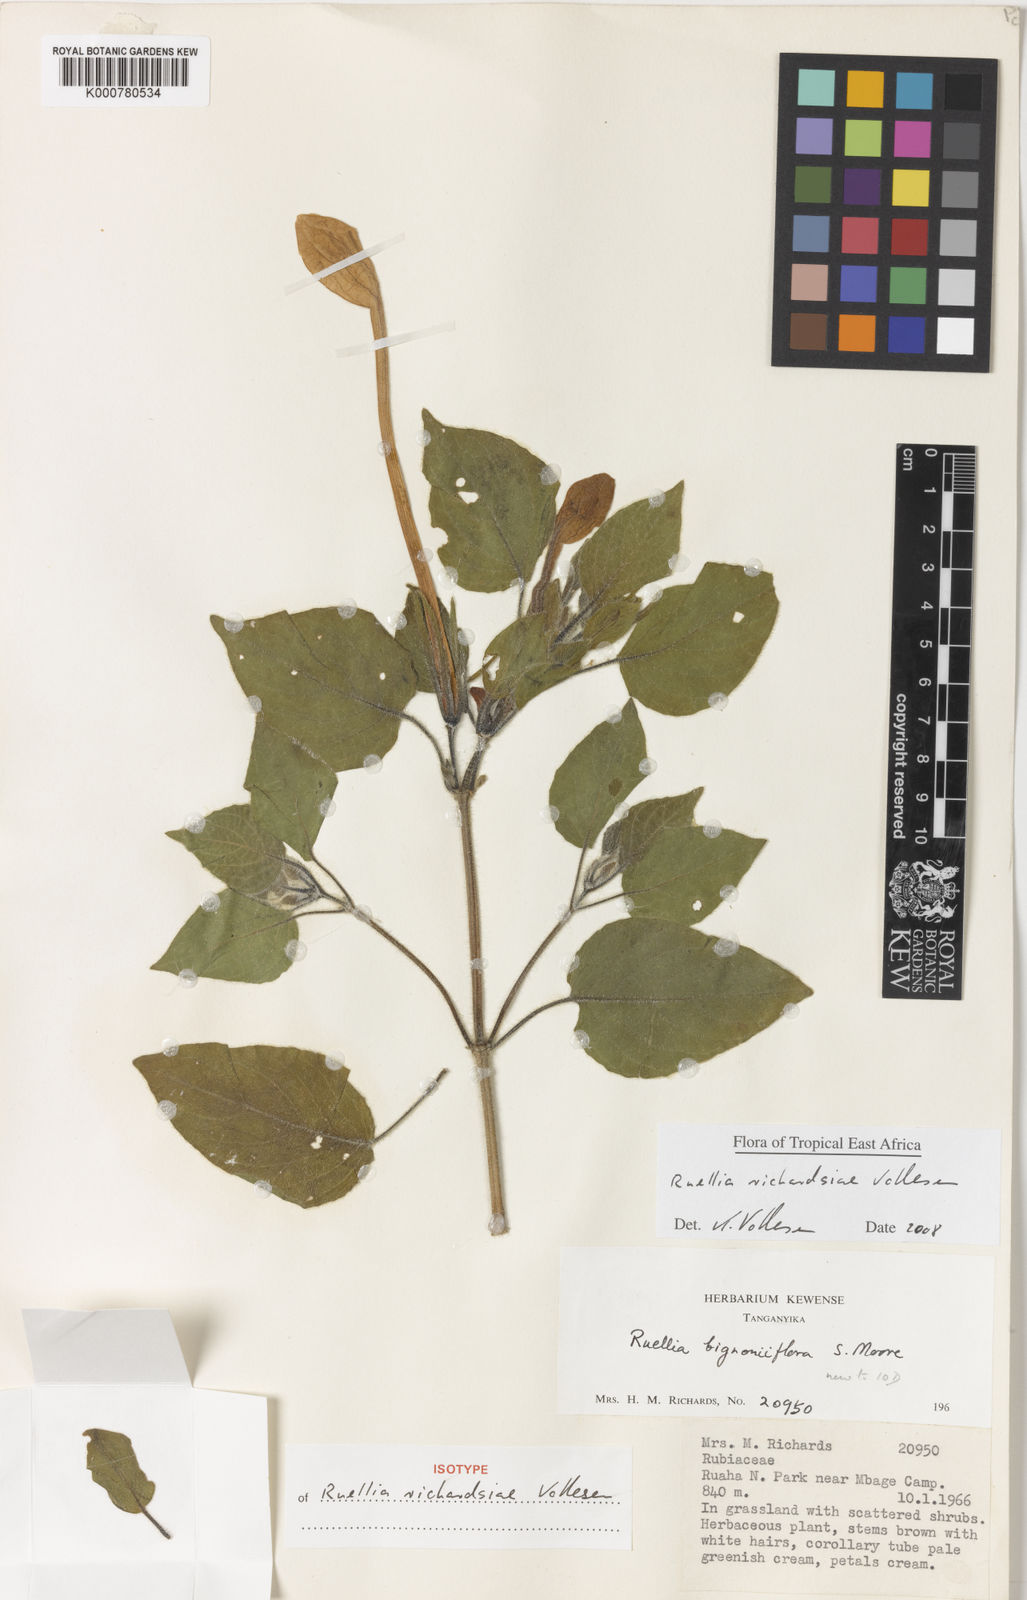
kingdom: Plantae
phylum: Tracheophyta
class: Magnoliopsida
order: Lamiales
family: Acanthaceae
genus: Ruellia
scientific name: Ruellia richardsiae
